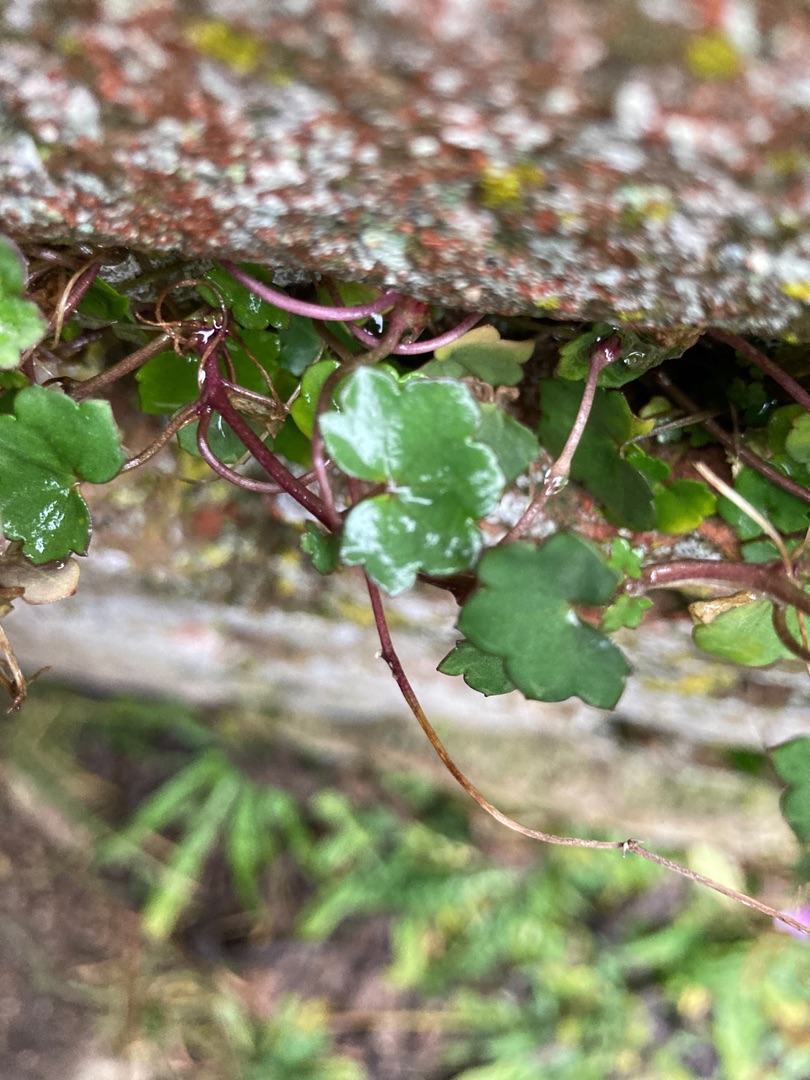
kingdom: Plantae
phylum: Tracheophyta
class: Magnoliopsida
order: Lamiales
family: Plantaginaceae
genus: Cymbalaria
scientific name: Cymbalaria muralis
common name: Vedbend-torskemund
